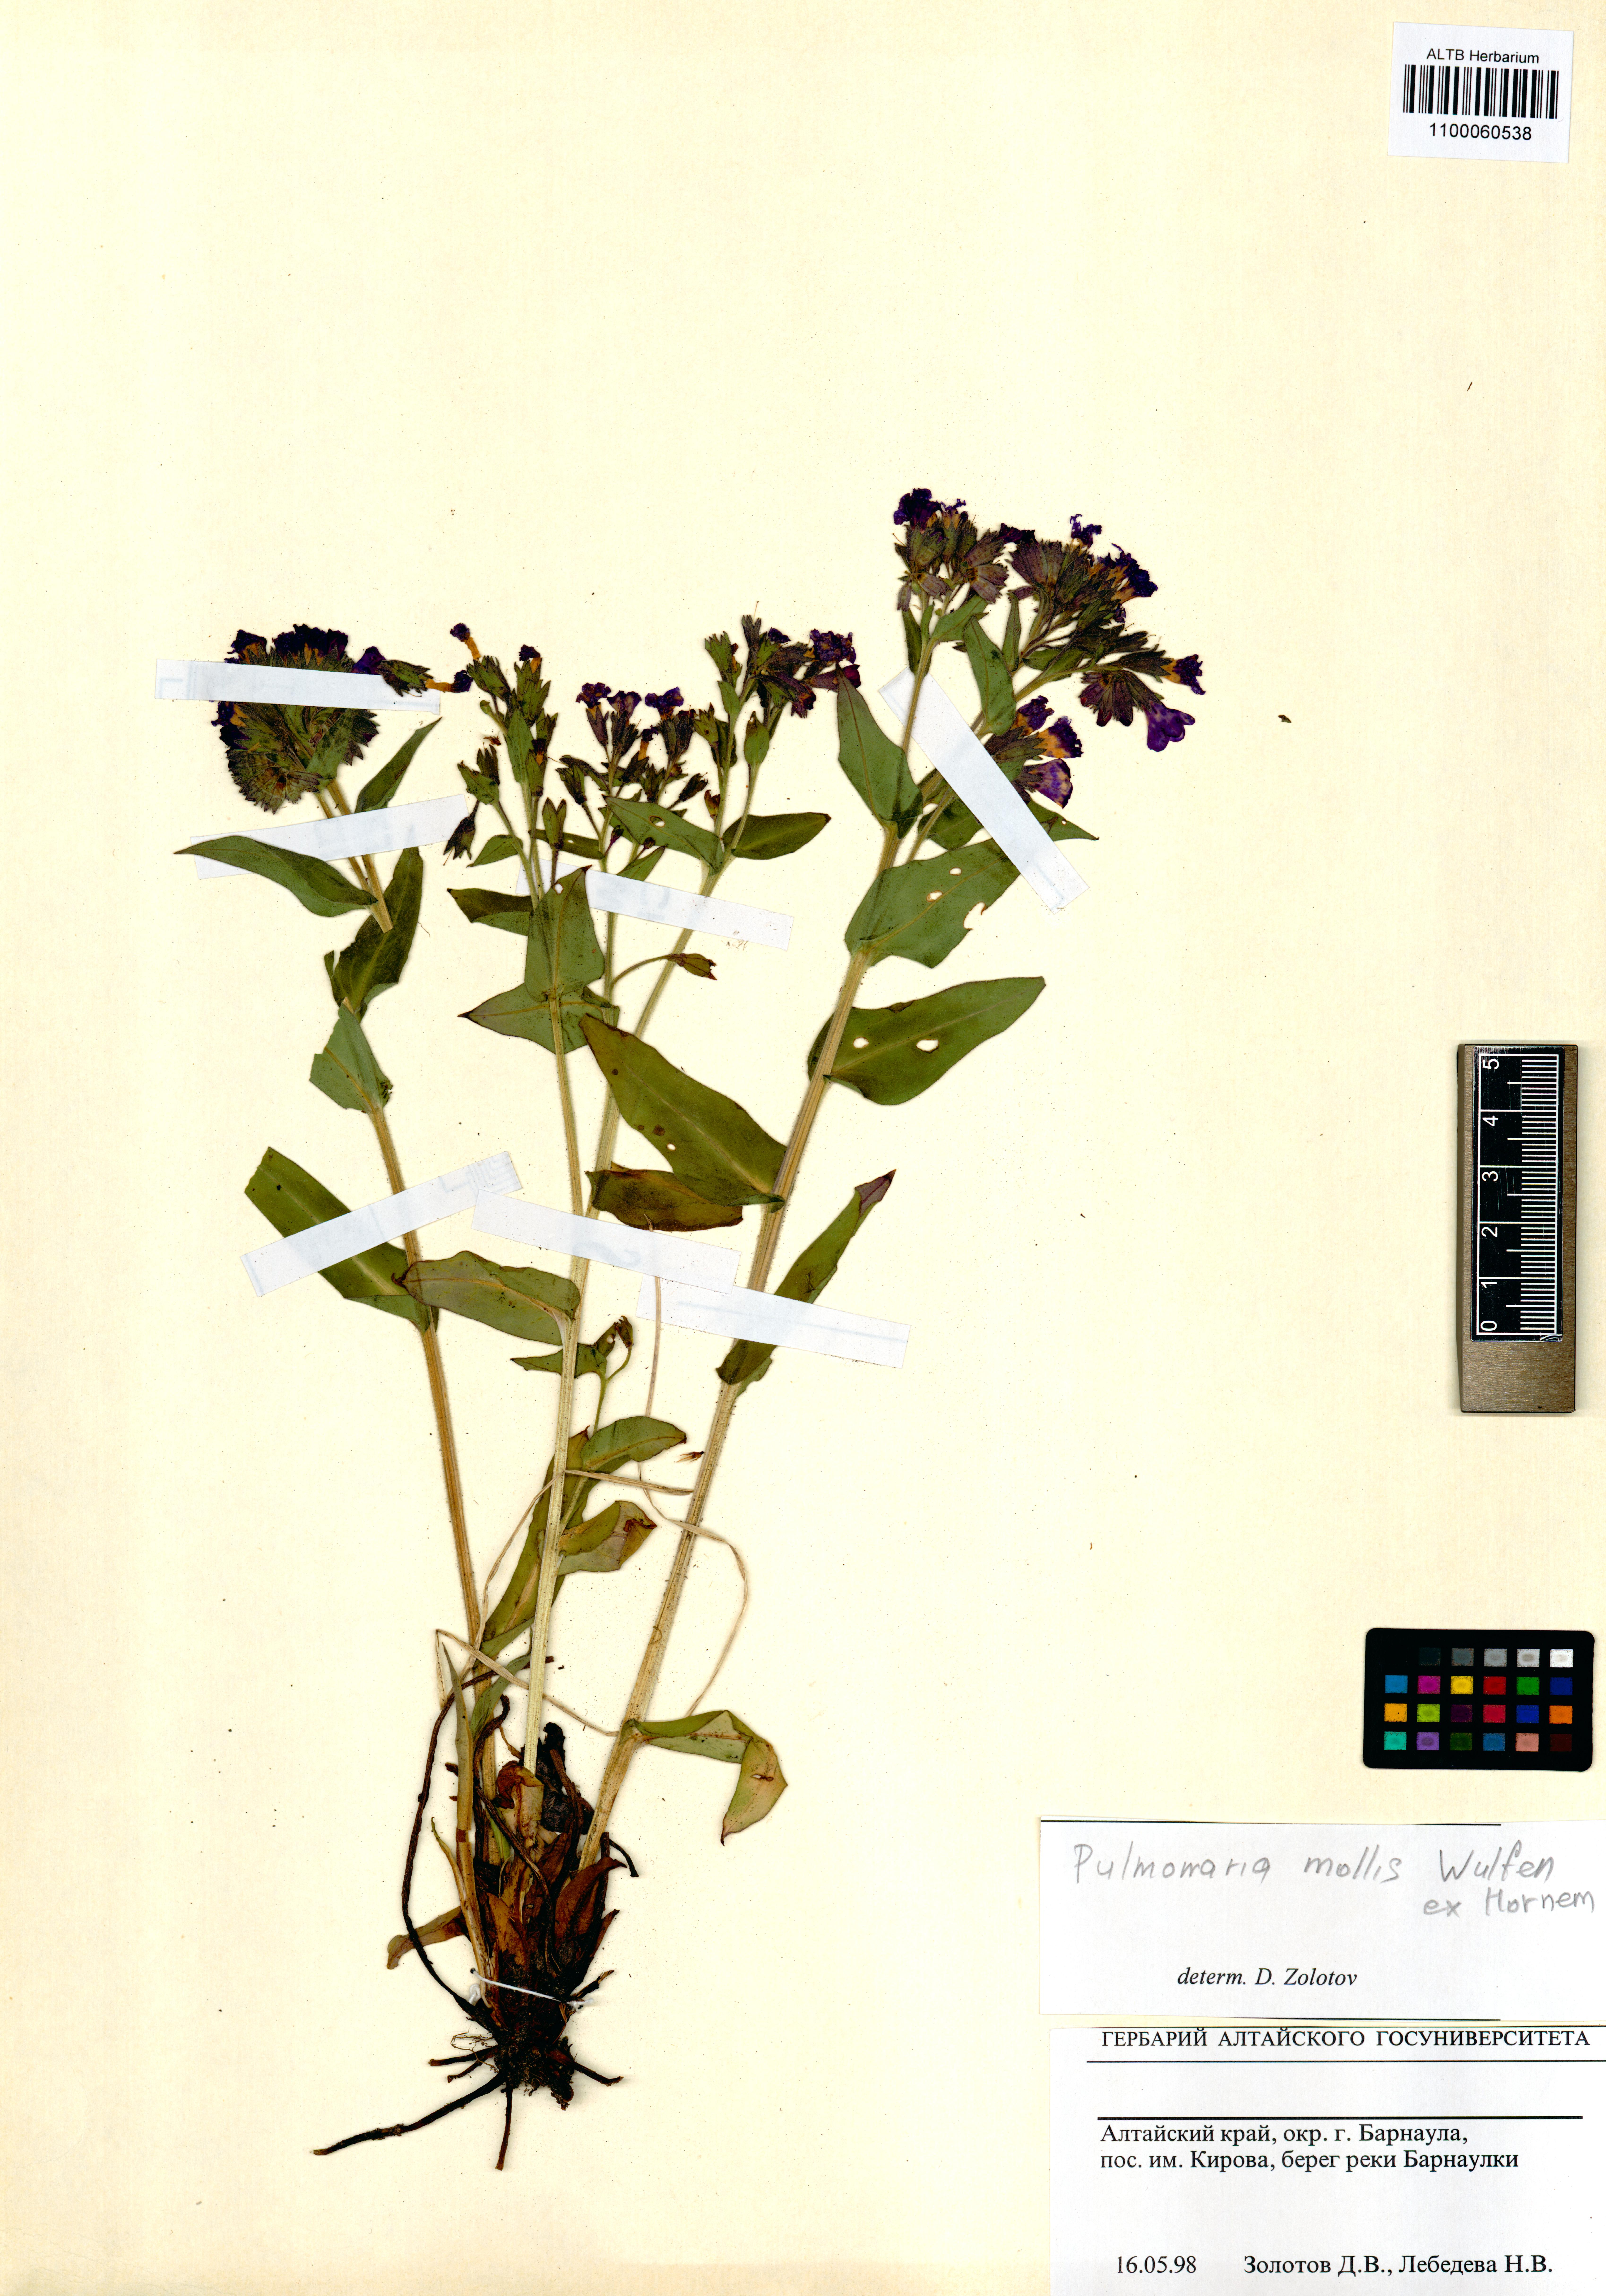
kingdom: Plantae
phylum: Tracheophyta
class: Magnoliopsida
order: Boraginales
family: Boraginaceae
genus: Pulmonaria
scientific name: Pulmonaria mollis
